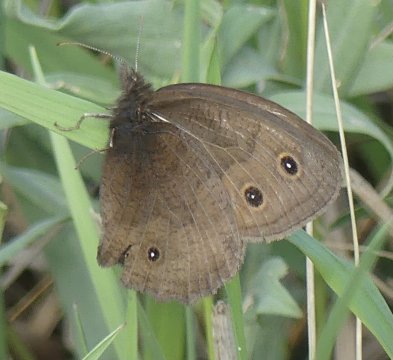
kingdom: Animalia
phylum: Arthropoda
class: Insecta
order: Lepidoptera
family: Nymphalidae
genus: Cercyonis
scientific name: Cercyonis pegala
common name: Common Wood-Nymph
